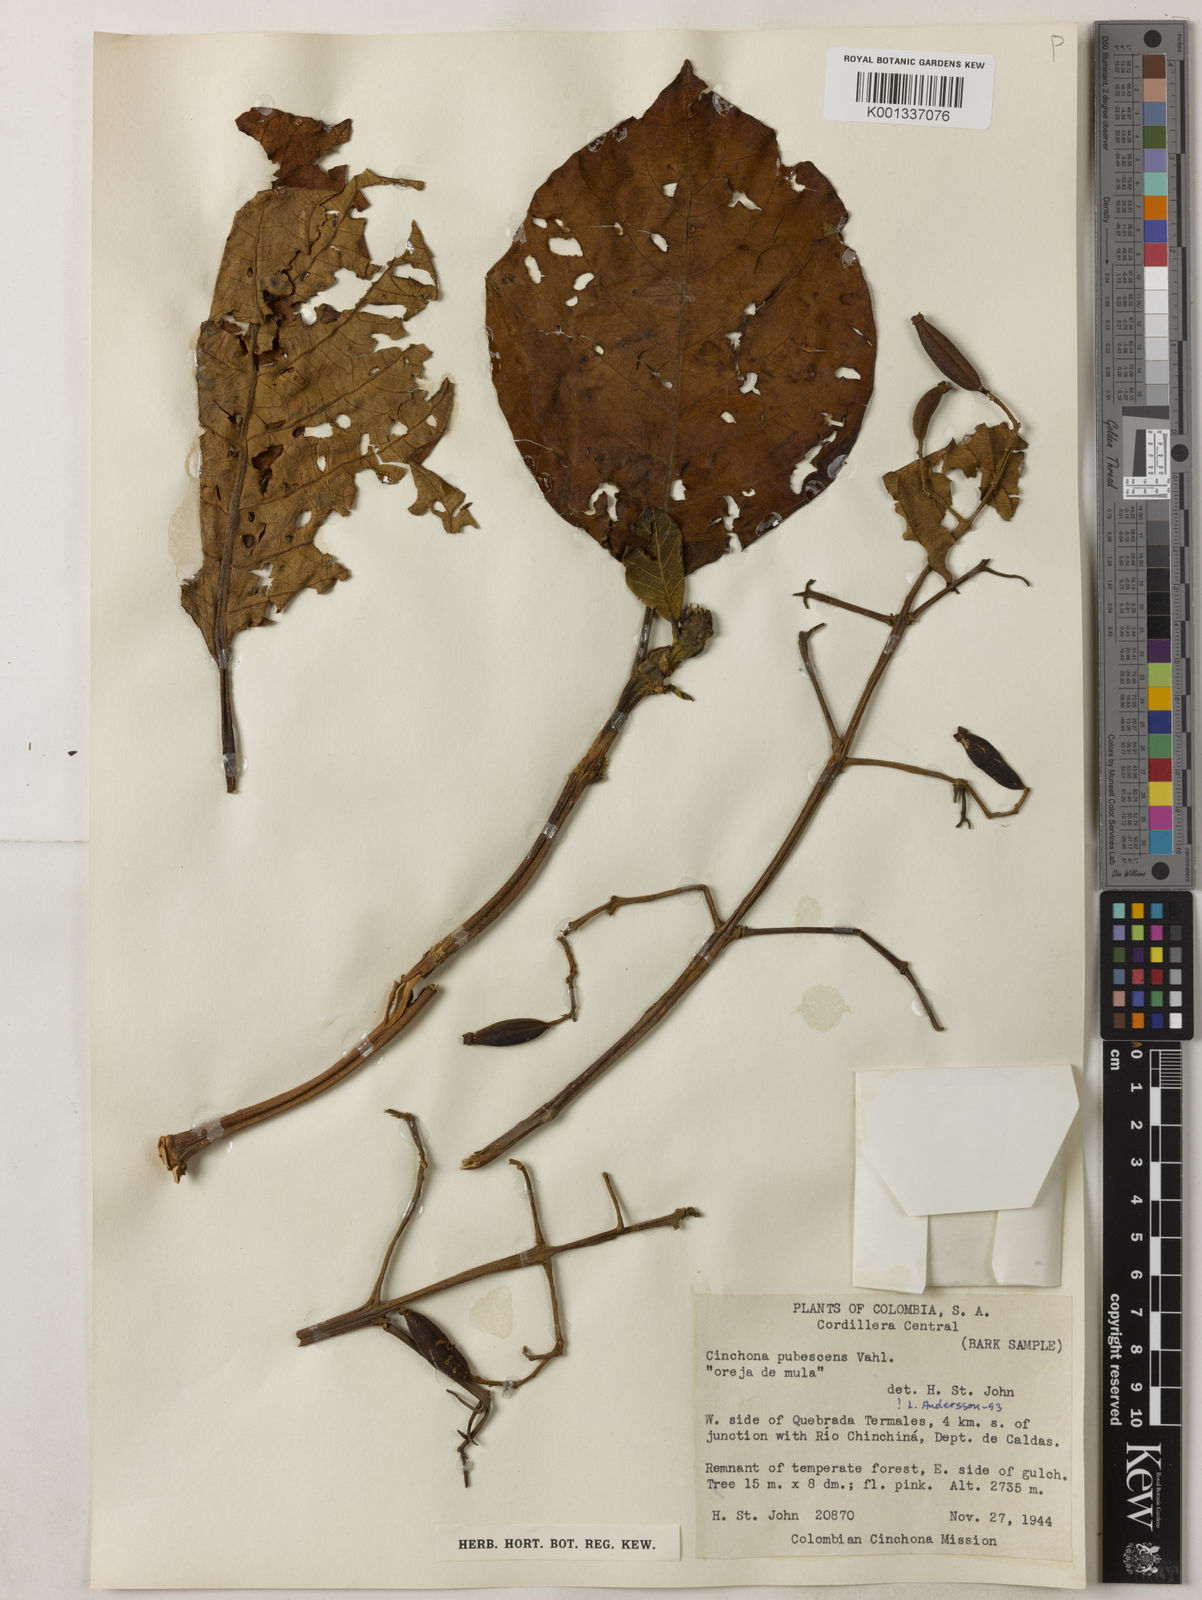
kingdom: Plantae
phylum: Tracheophyta
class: Magnoliopsida
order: Gentianales
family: Rubiaceae
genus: Cinchona
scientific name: Cinchona pubescens
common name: Quinine
